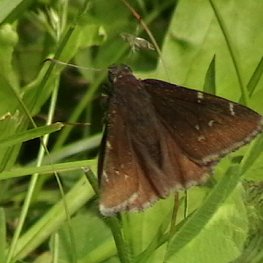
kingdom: Animalia
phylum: Arthropoda
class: Insecta
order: Lepidoptera
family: Hesperiidae
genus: Autochton
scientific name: Autochton
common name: Northern Cloudywing
